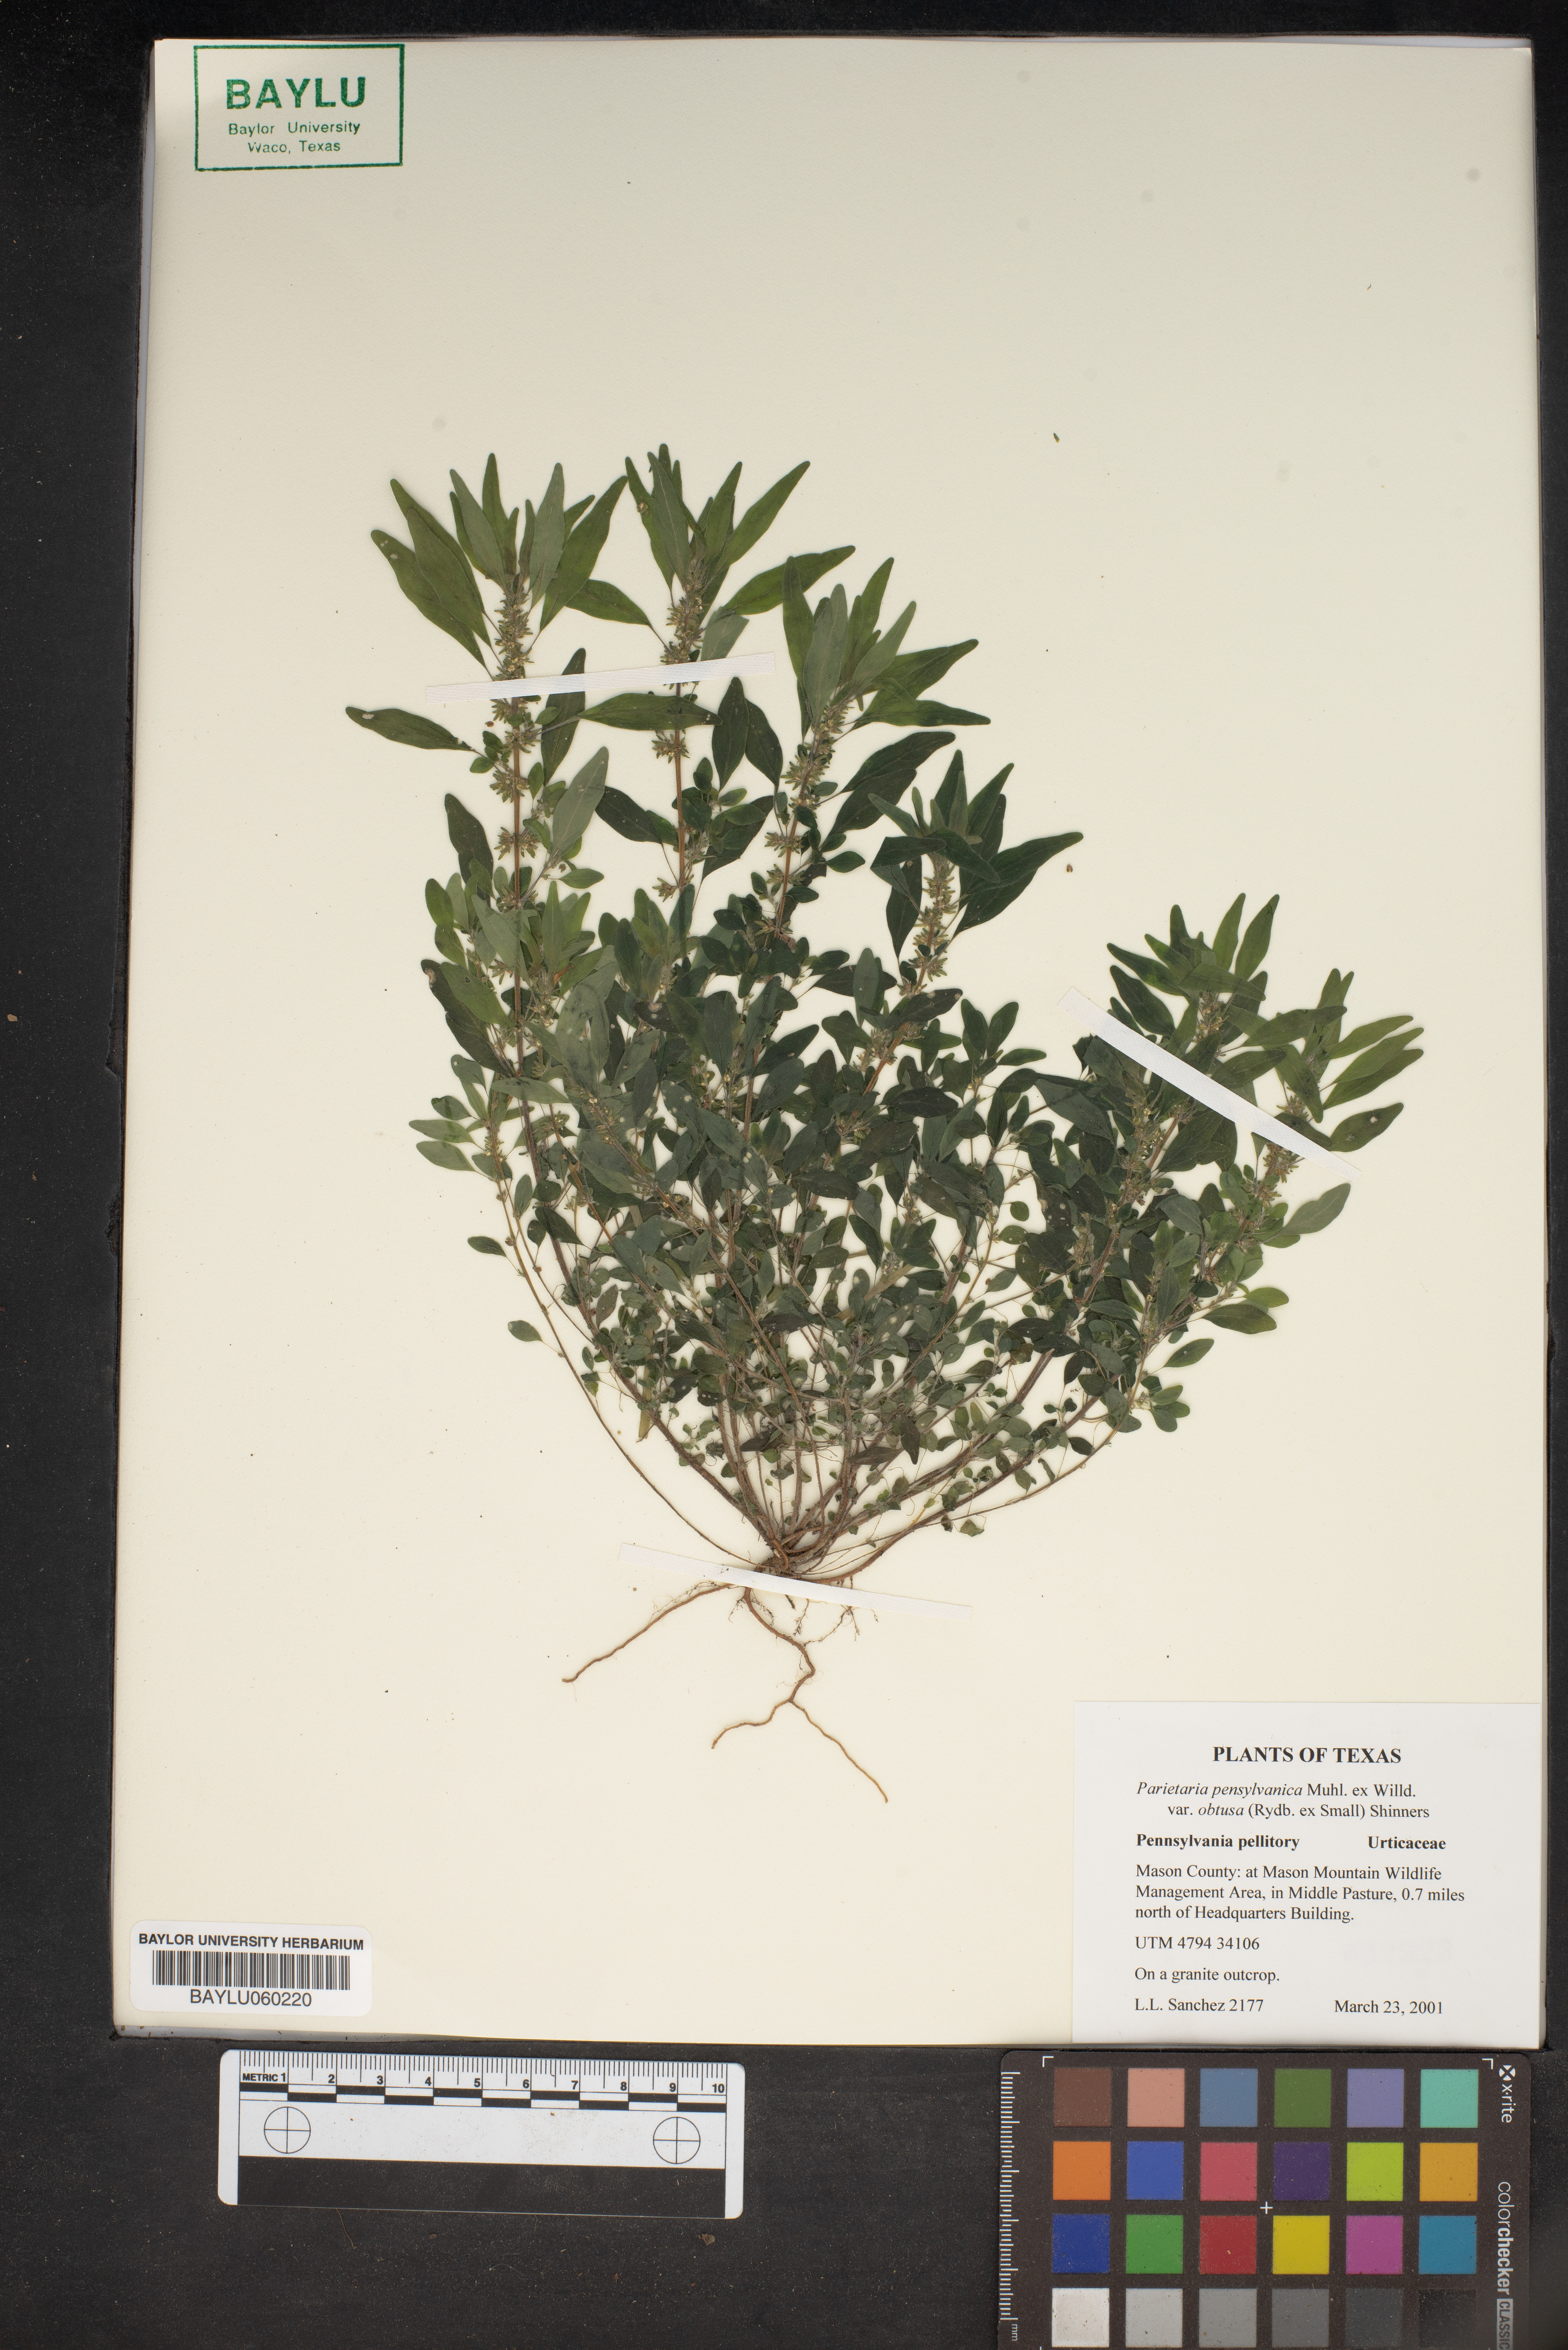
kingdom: Plantae
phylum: Tracheophyta
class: Magnoliopsida
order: Rosales
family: Urticaceae
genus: Parietaria
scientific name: Parietaria
